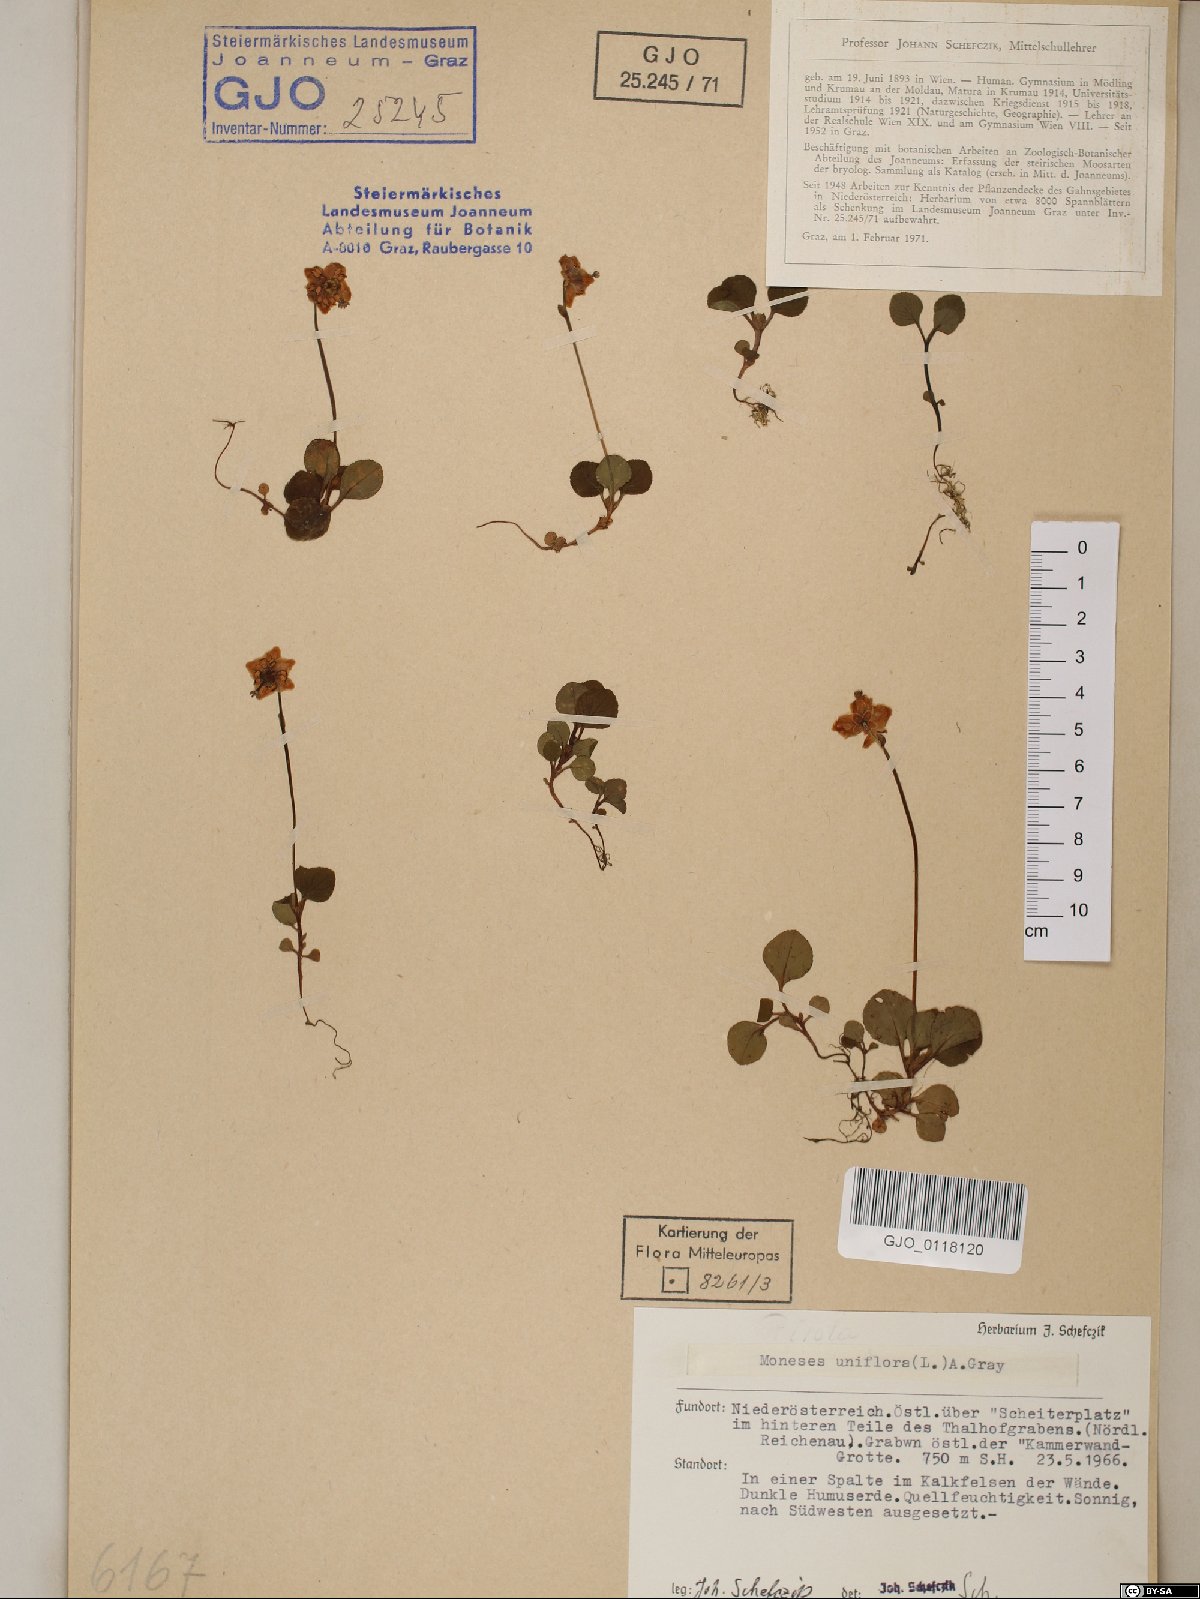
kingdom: Plantae
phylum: Tracheophyta
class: Magnoliopsida
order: Ericales
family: Ericaceae
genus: Moneses
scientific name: Moneses uniflora
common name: One-flowered wintergreen
